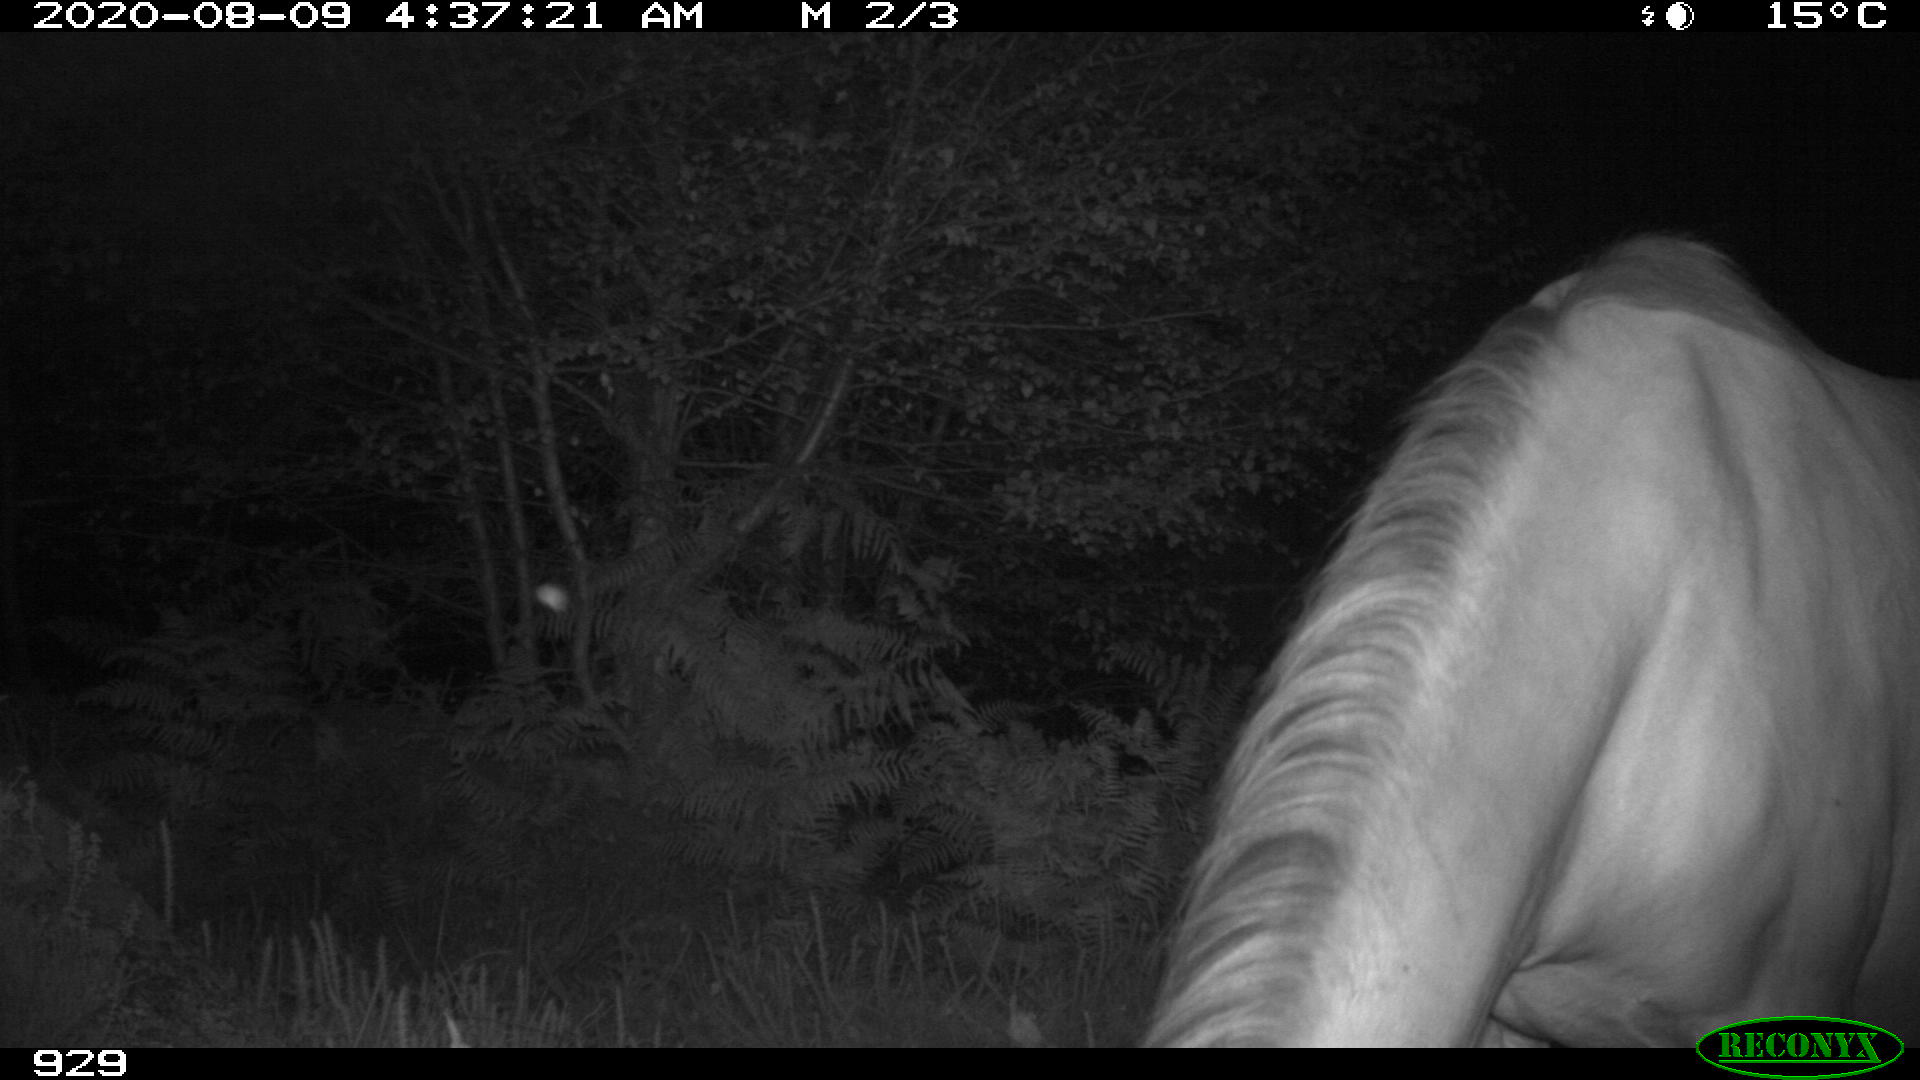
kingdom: Animalia
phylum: Chordata
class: Mammalia
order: Perissodactyla
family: Equidae
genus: Equus
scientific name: Equus caballus
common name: Horse
